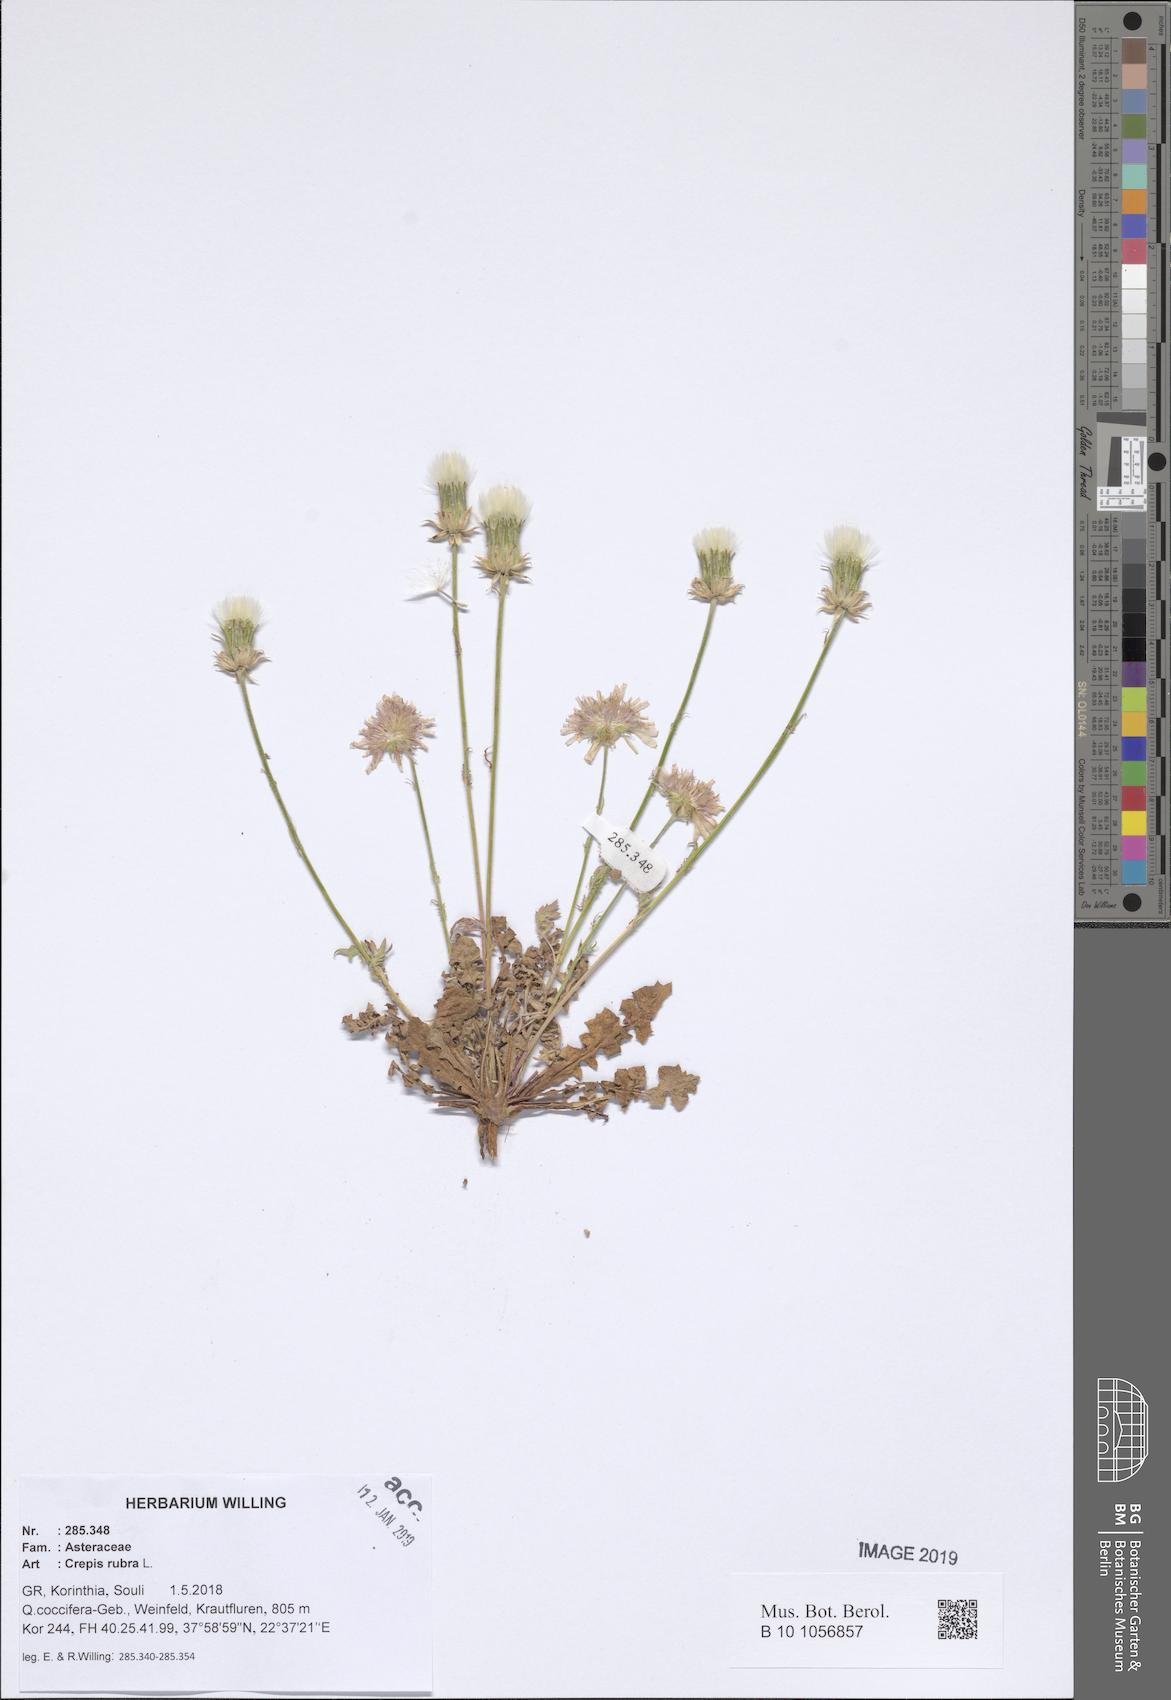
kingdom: Plantae
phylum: Tracheophyta
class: Magnoliopsida
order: Asterales
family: Asteraceae
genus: Crepis
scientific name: Crepis rubra
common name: Pink hawk's-beard
